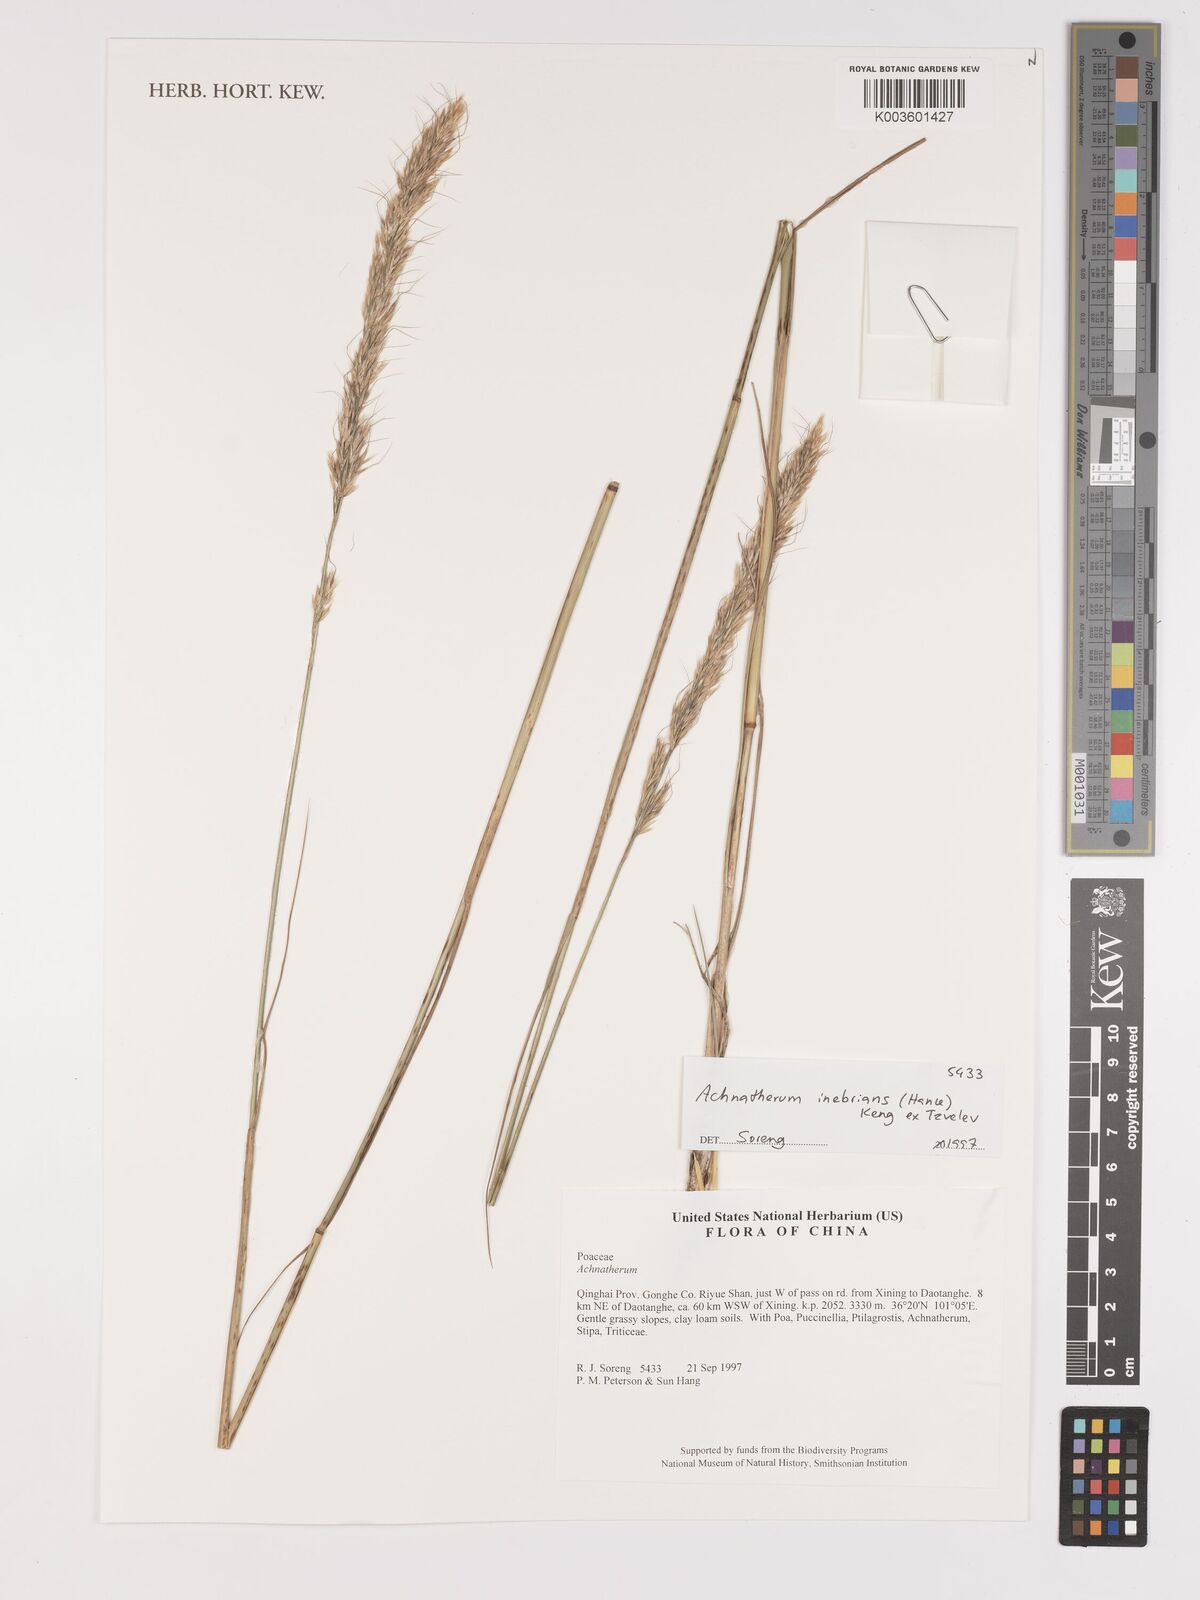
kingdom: Plantae
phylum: Tracheophyta
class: Liliopsida
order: Poales
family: Poaceae
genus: Achnatherum
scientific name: Achnatherum inebrians
